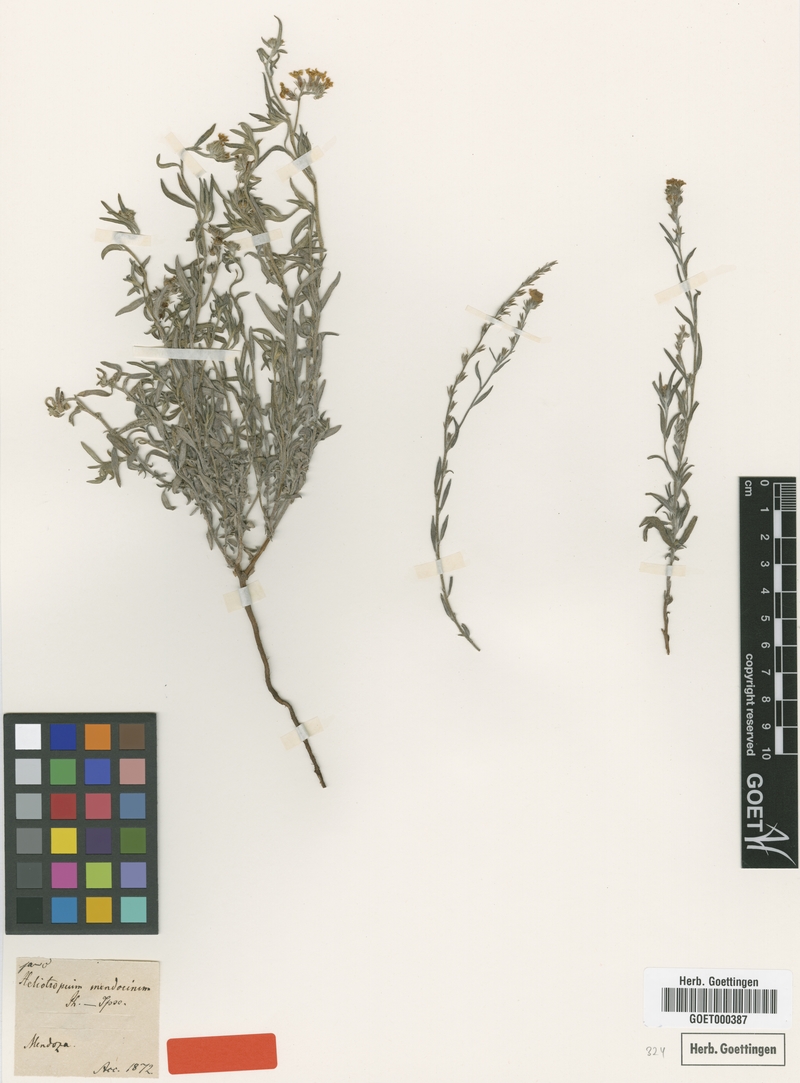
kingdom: Plantae
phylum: Tracheophyta
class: Magnoliopsida
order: Boraginales
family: Heliotropiaceae
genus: Euploca
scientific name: Euploca mendocina
